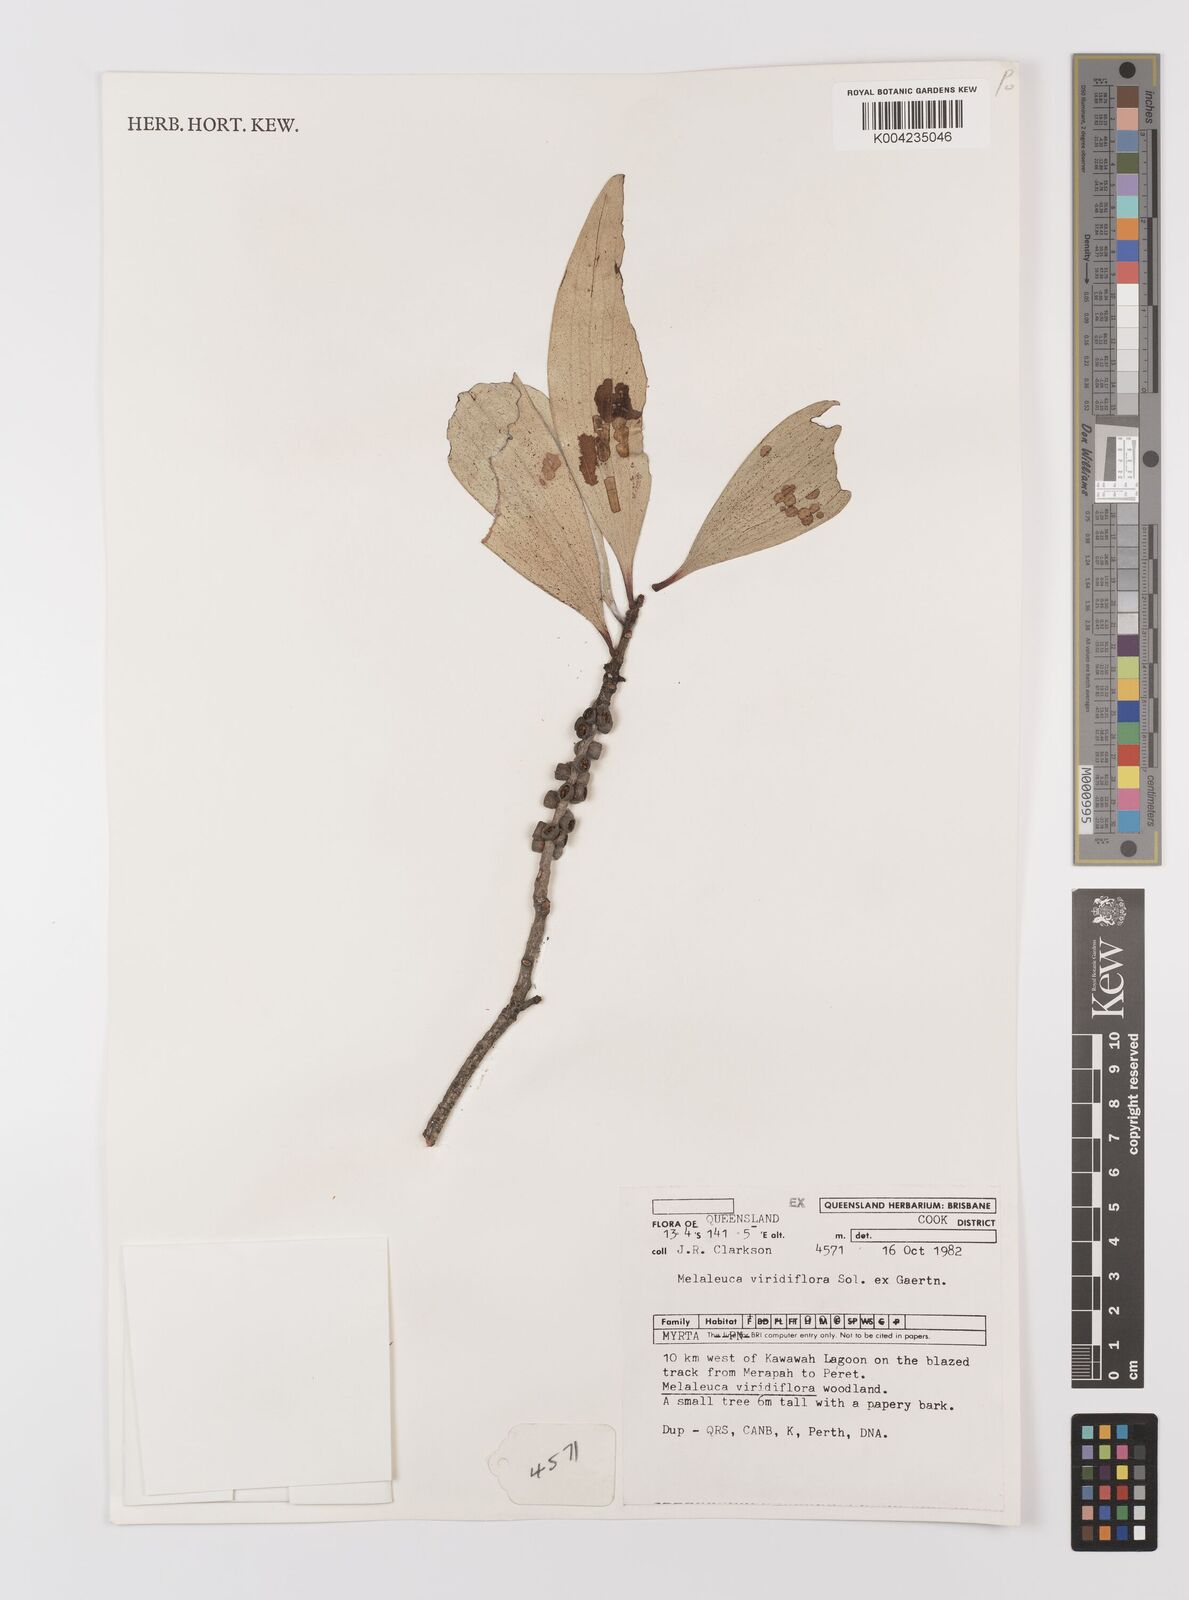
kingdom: Plantae
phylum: Tracheophyta
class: Magnoliopsida
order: Myrtales
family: Myrtaceae
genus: Melaleuca
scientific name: Melaleuca viridiflora
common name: Brown-leaved paperbark
